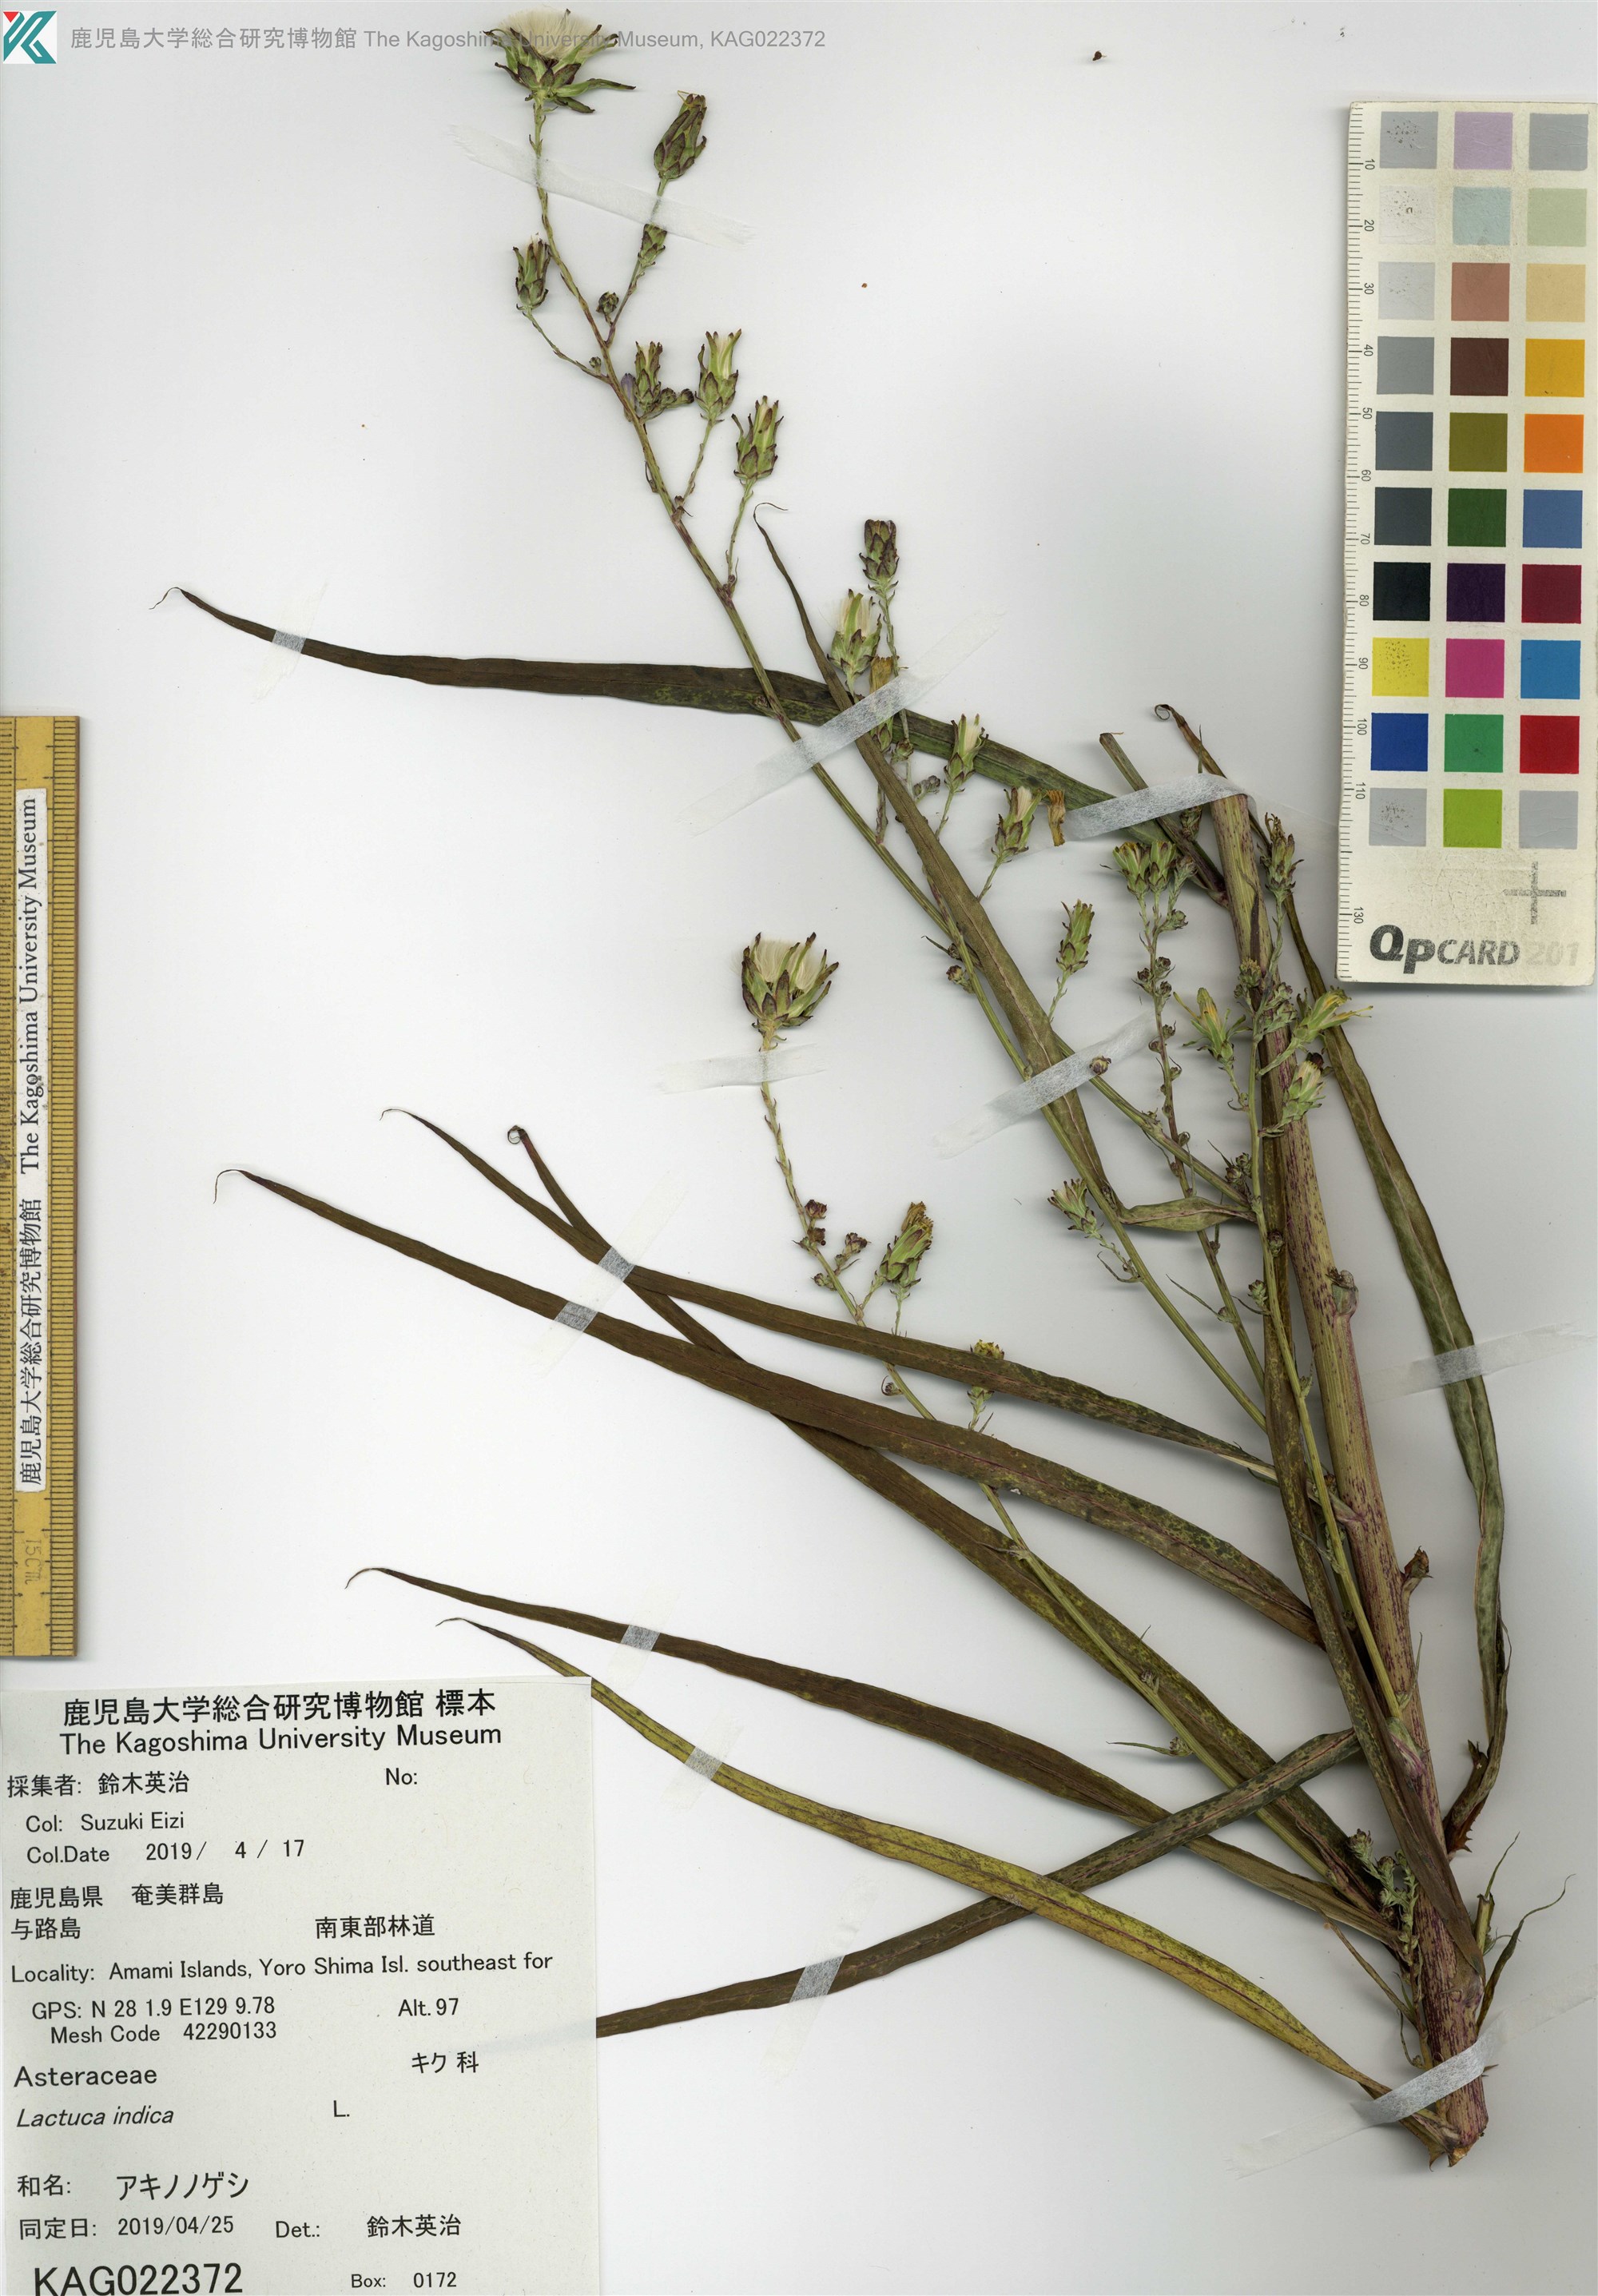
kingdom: Plantae
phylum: Tracheophyta
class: Magnoliopsida
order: Asterales
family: Asteraceae
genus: Lactuca
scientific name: Lactuca indica
